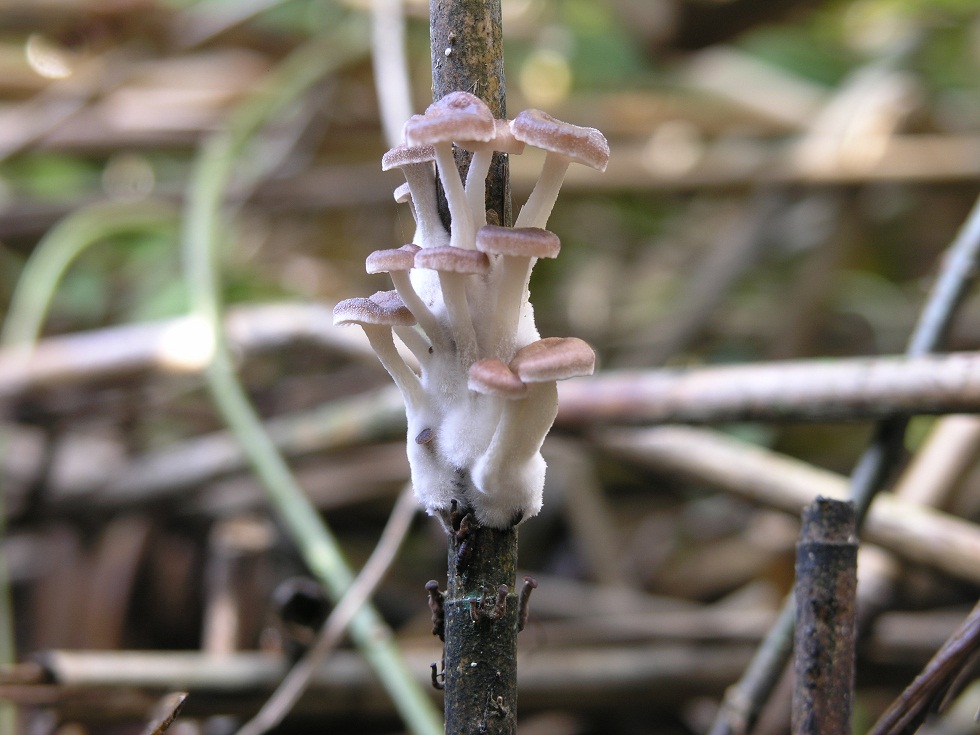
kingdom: Fungi
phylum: Basidiomycota
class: Agaricomycetes
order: Agaricales
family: Mycenaceae
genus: Mycena
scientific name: Mycena belliae
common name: tagrørs-huesvamp
